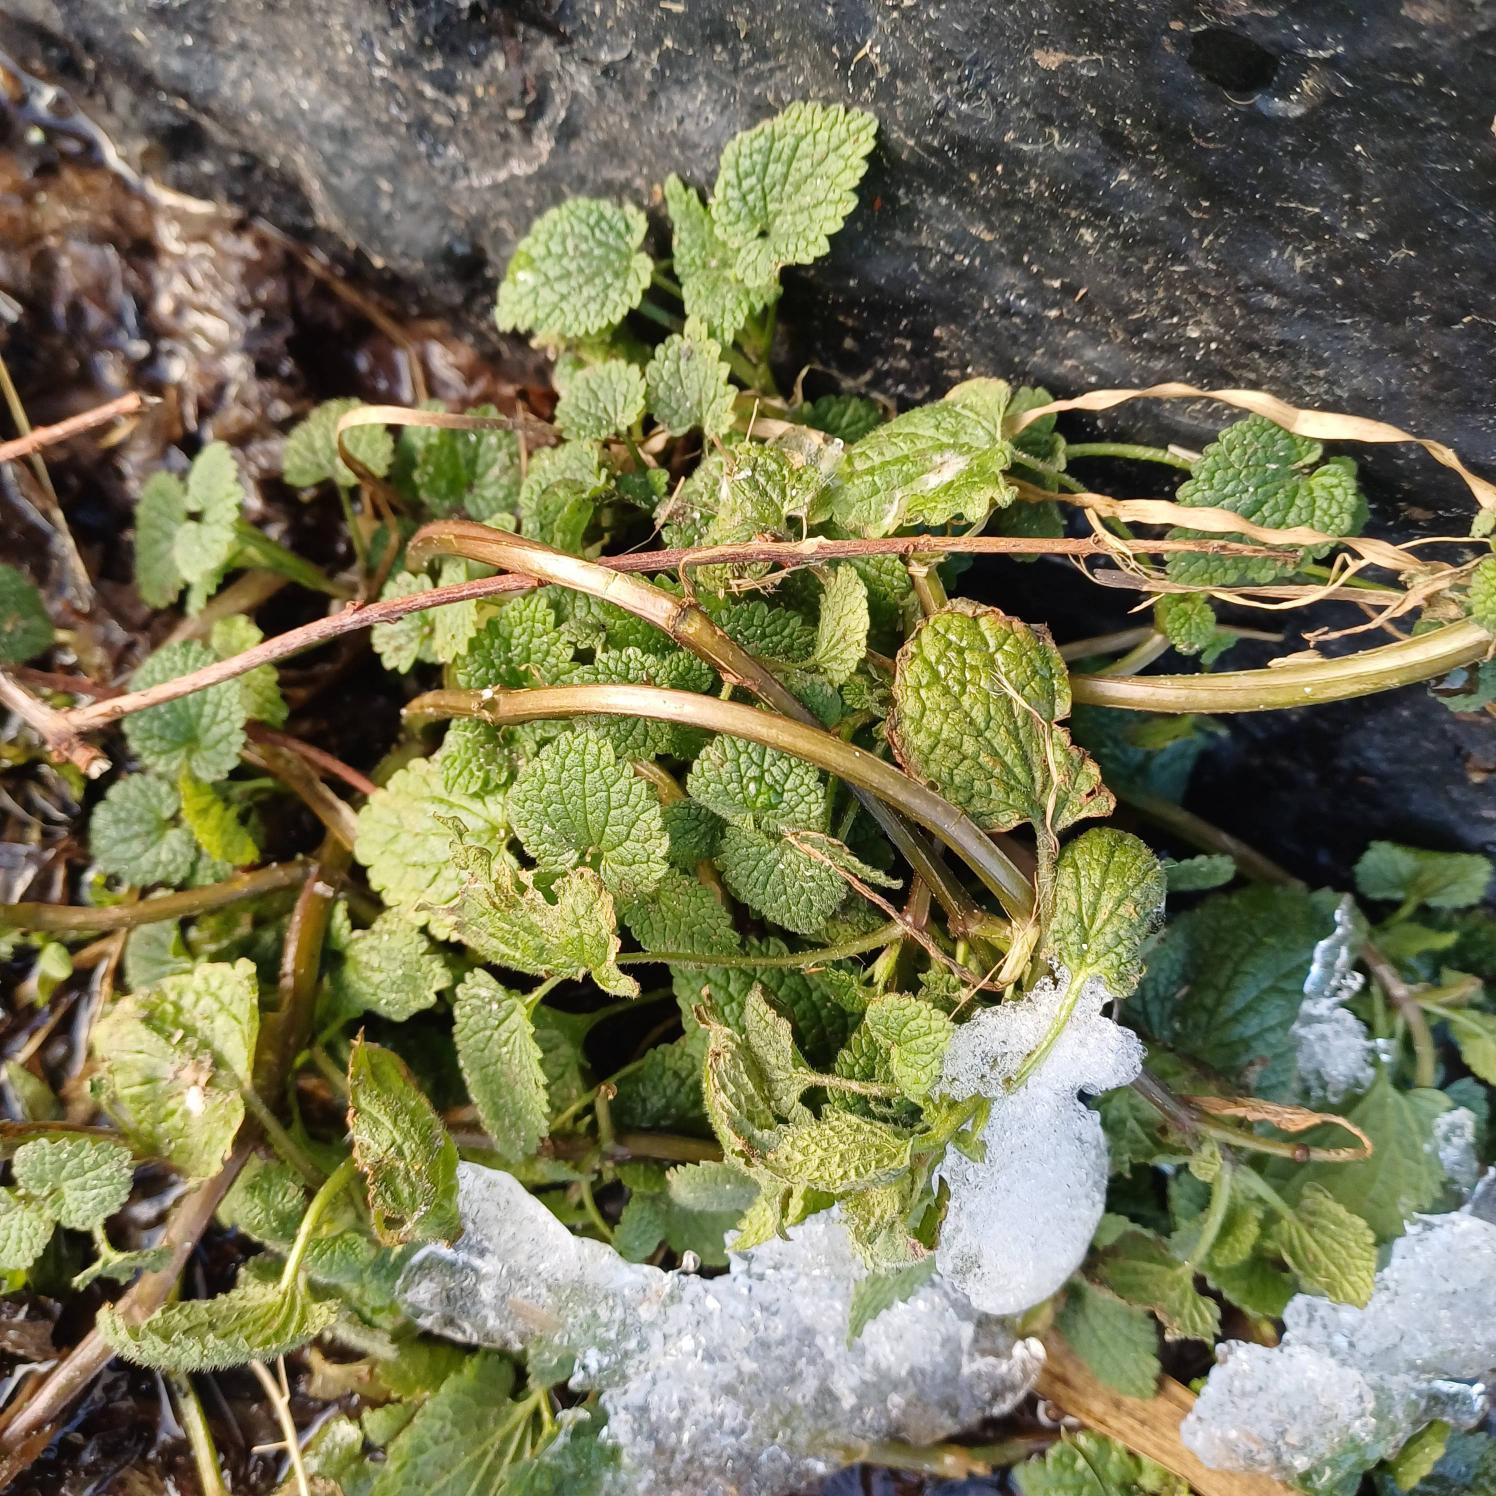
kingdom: Plantae
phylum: Tracheophyta
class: Magnoliopsida
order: Lamiales
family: Lamiaceae
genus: Lamium
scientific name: Lamium purpureum
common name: Rød tvetand
